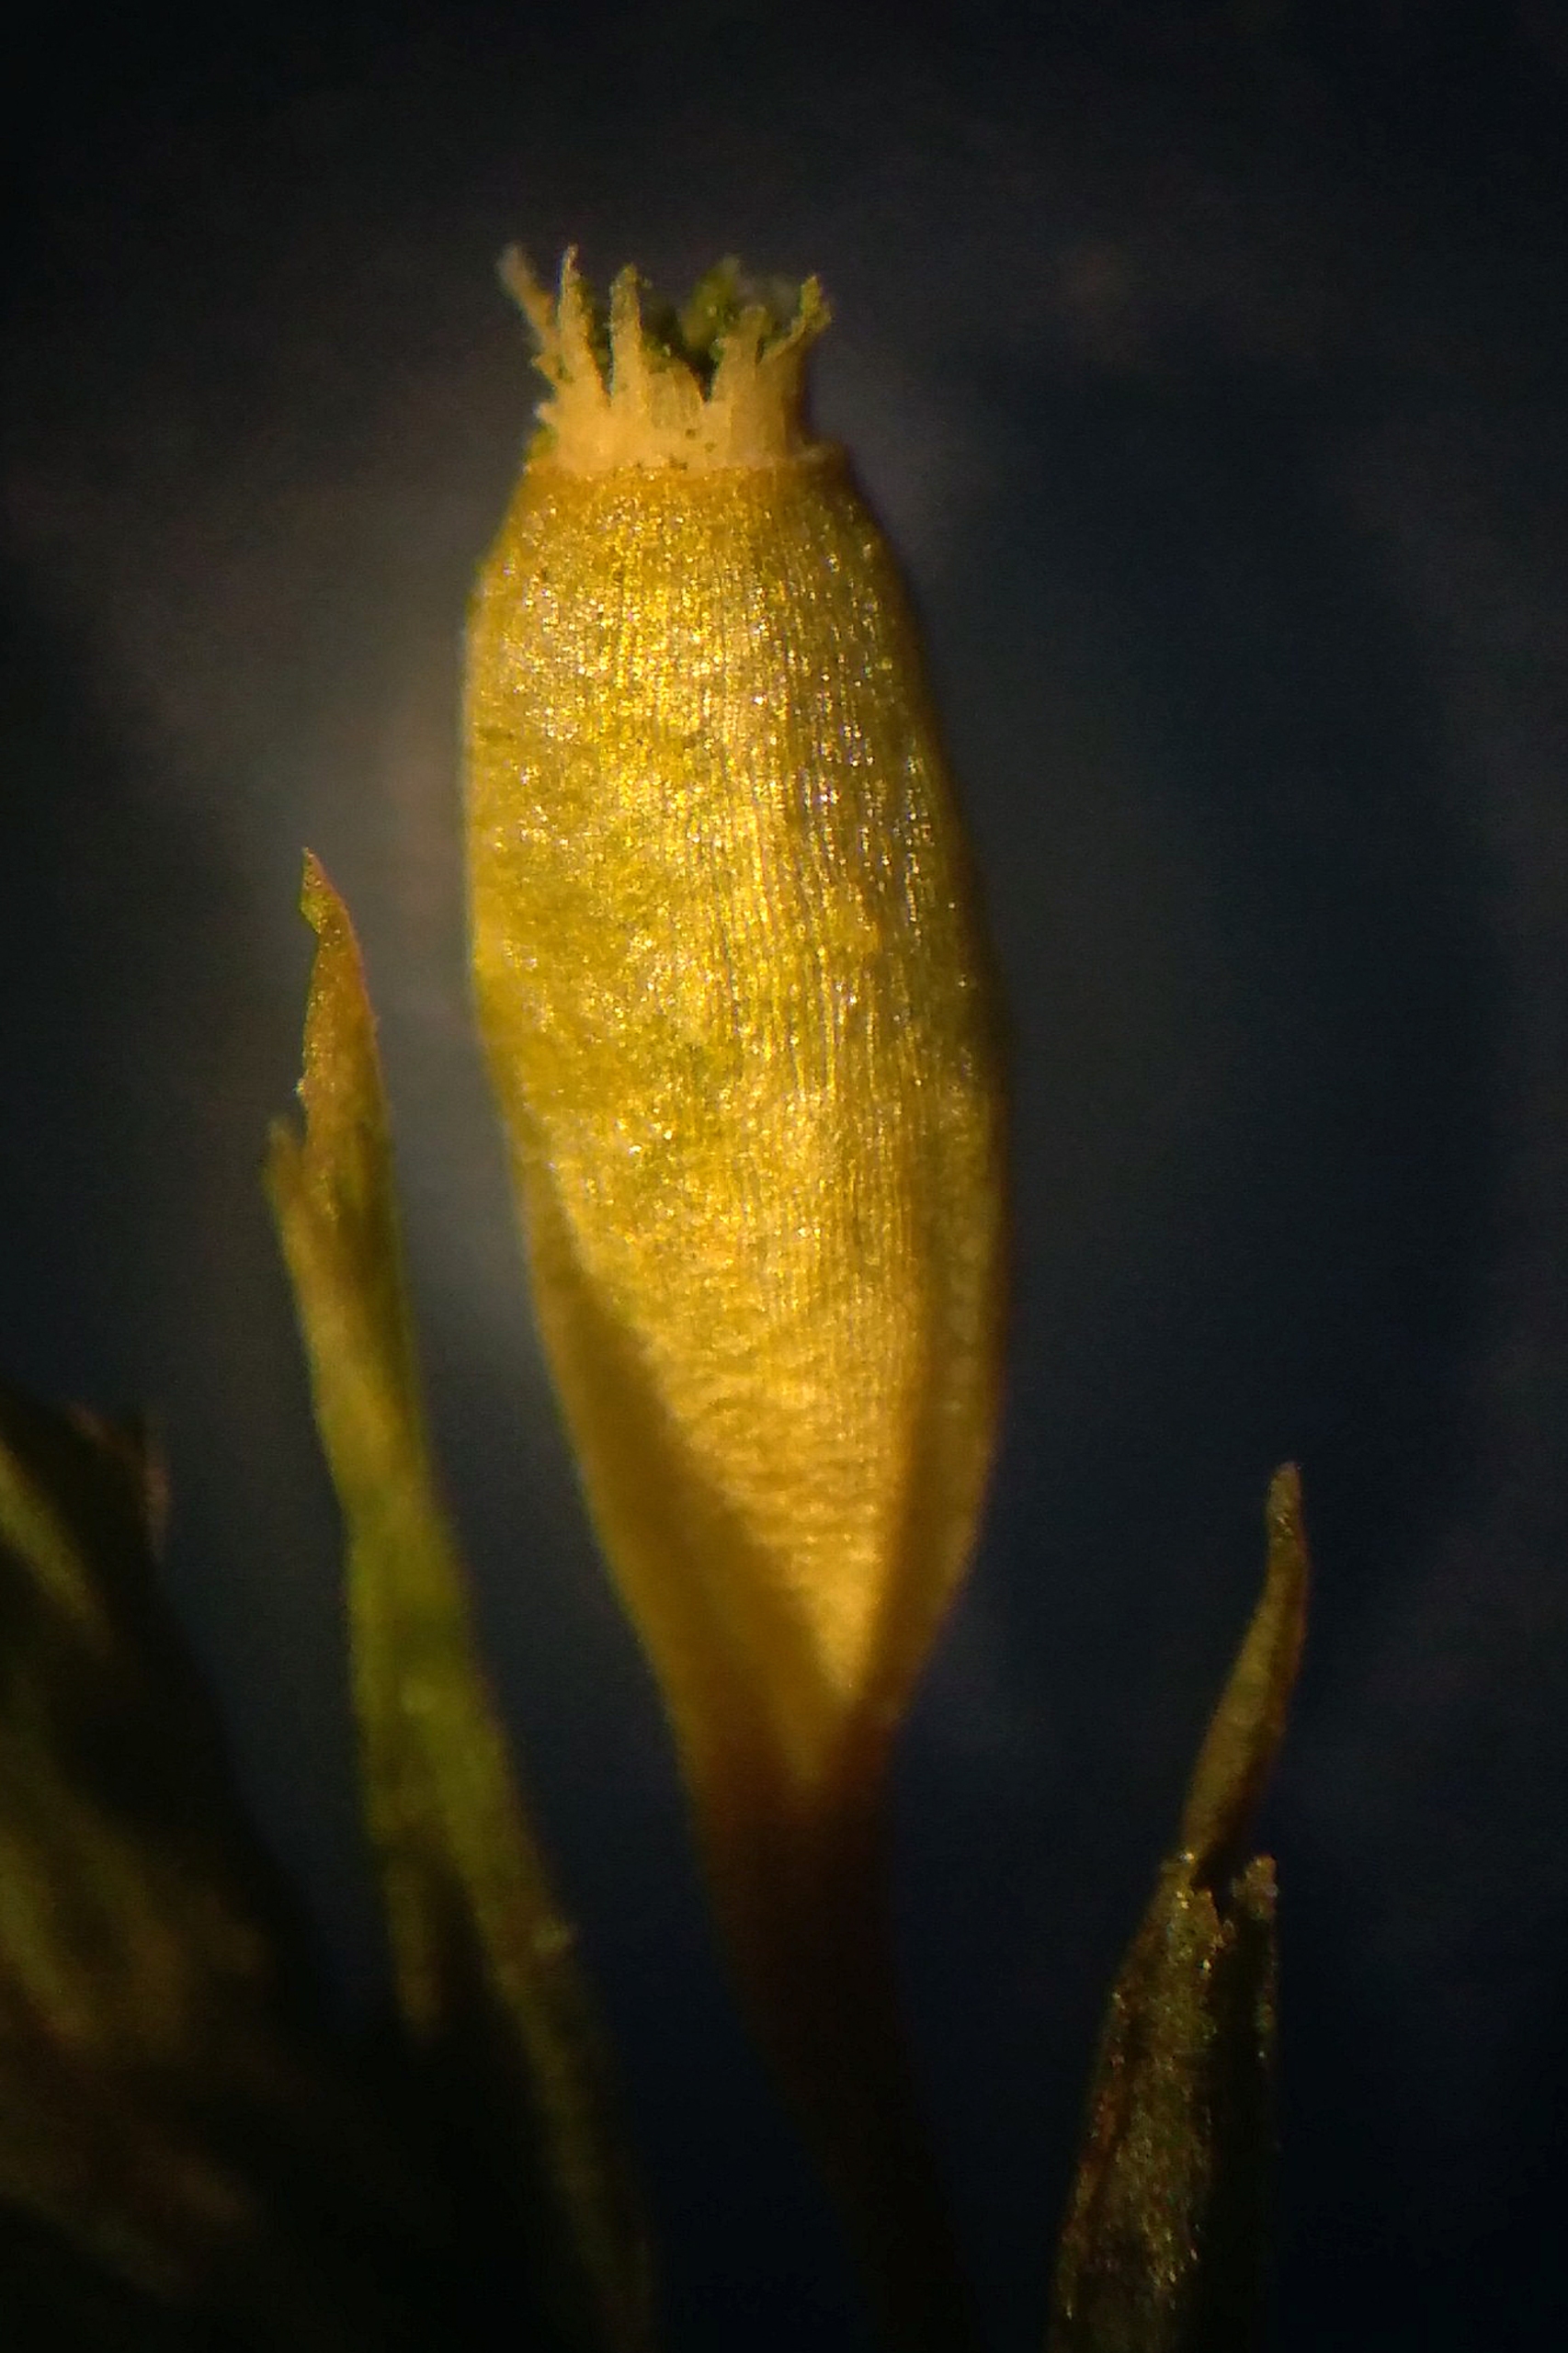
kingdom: Plantae
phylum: Bryophyta
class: Bryopsida
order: Orthotrichales
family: Orthotrichaceae
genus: Lewinskya
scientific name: Lewinskya speciosa
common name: Kortstribet furehætte
